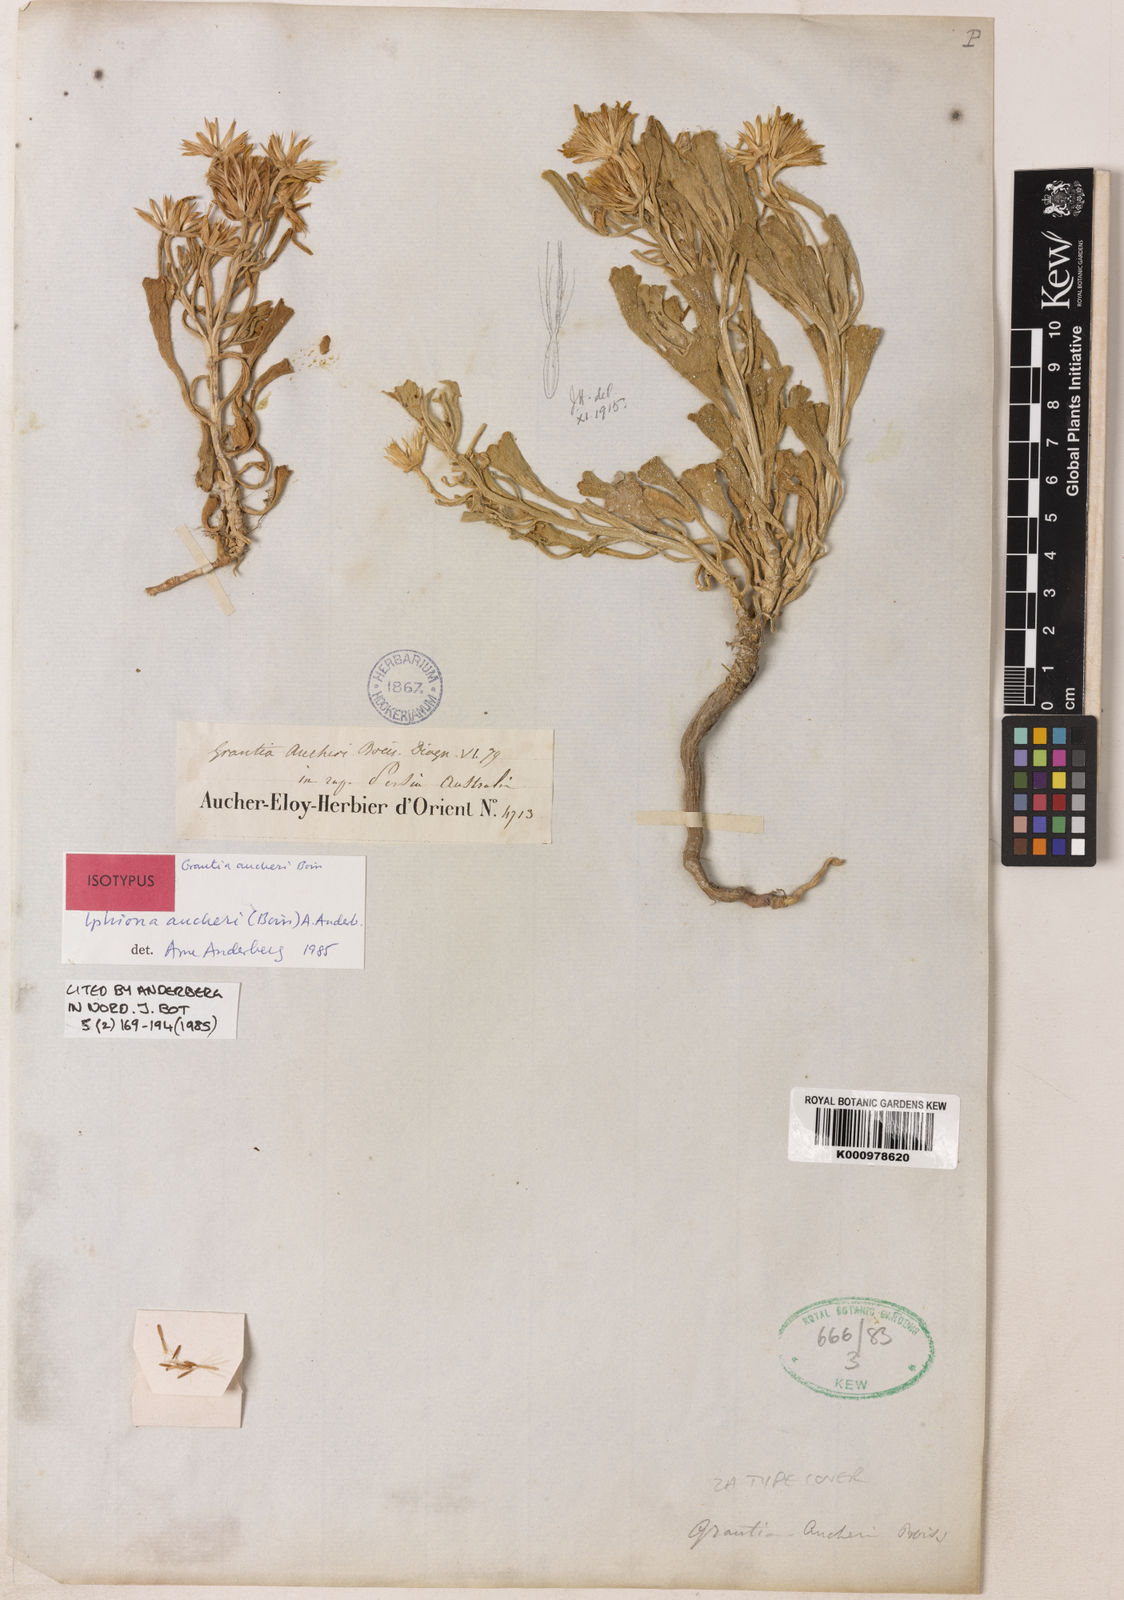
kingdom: Plantae
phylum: Tracheophyta
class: Magnoliopsida
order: Asterales
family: Asteraceae
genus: Iphiona
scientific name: Iphiona aucheri
